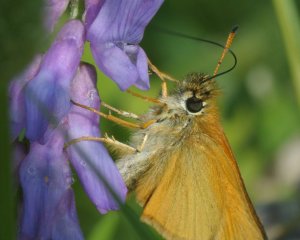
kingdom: Animalia
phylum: Arthropoda
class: Insecta
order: Lepidoptera
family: Hesperiidae
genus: Thymelicus
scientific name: Thymelicus lineola
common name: European Skipper
